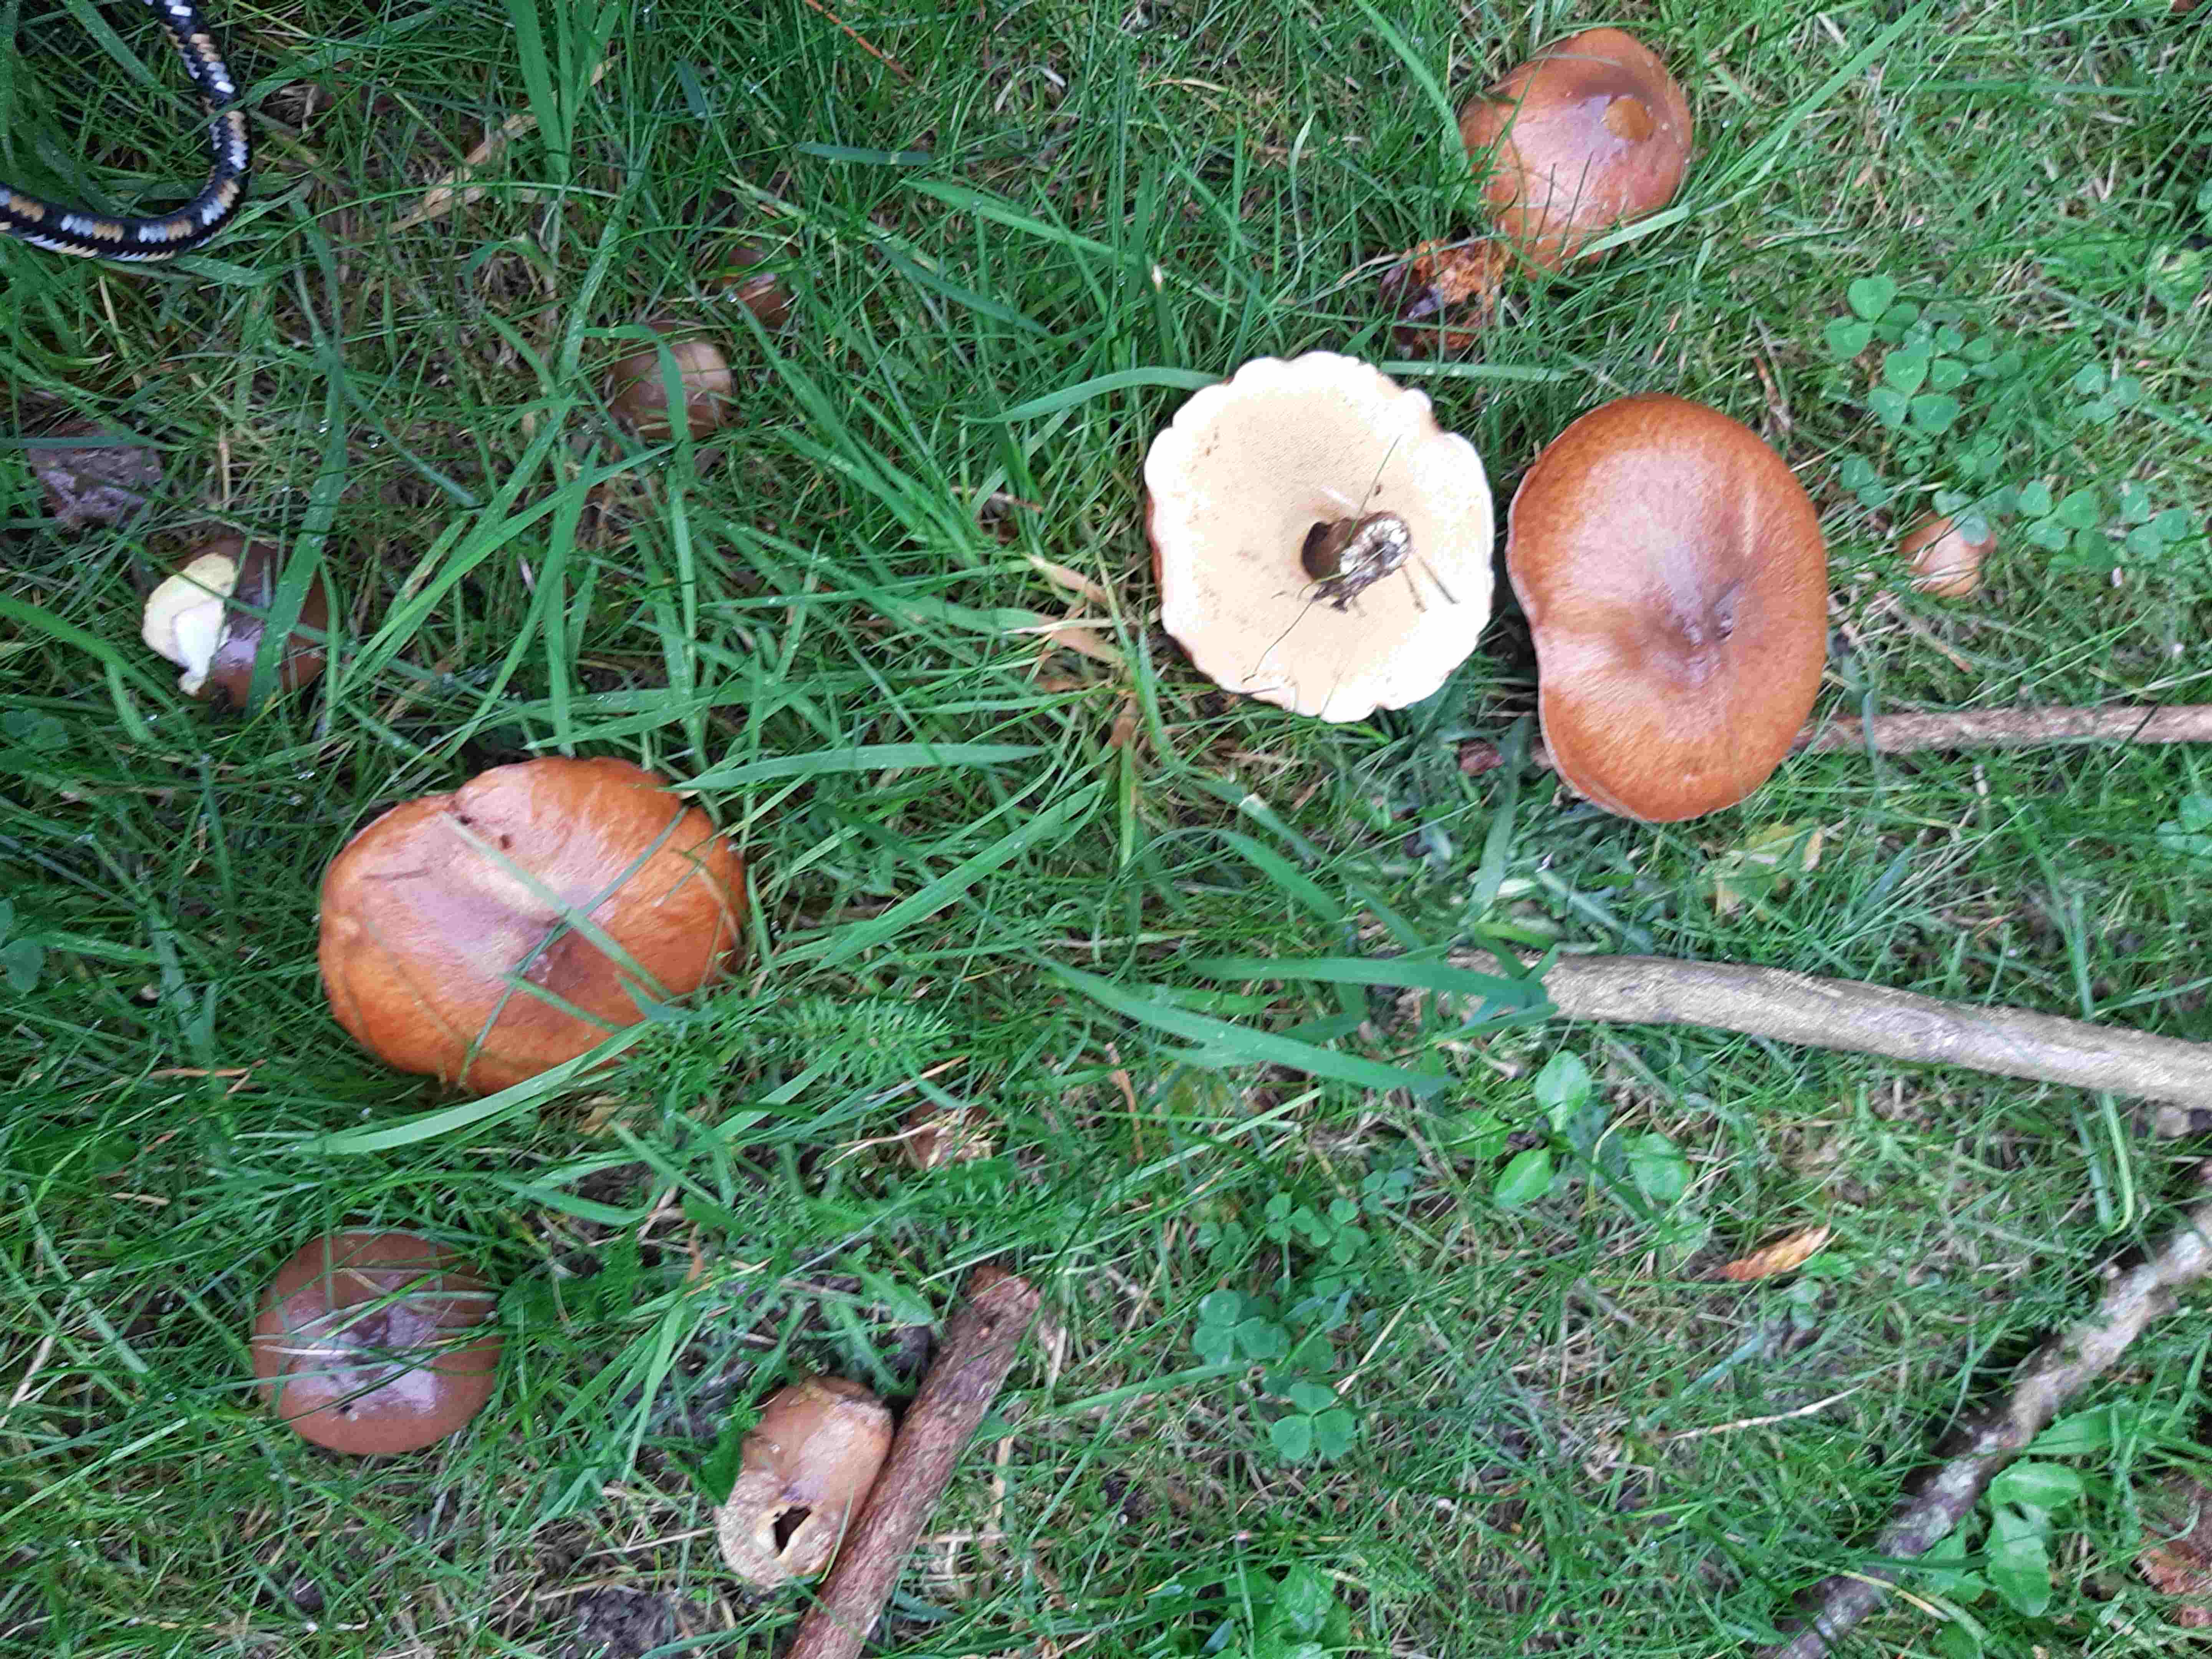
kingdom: Fungi
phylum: Basidiomycota
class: Agaricomycetes
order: Boletales
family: Suillaceae
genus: Suillus
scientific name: Suillus luteus
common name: brungul slimrørhat
